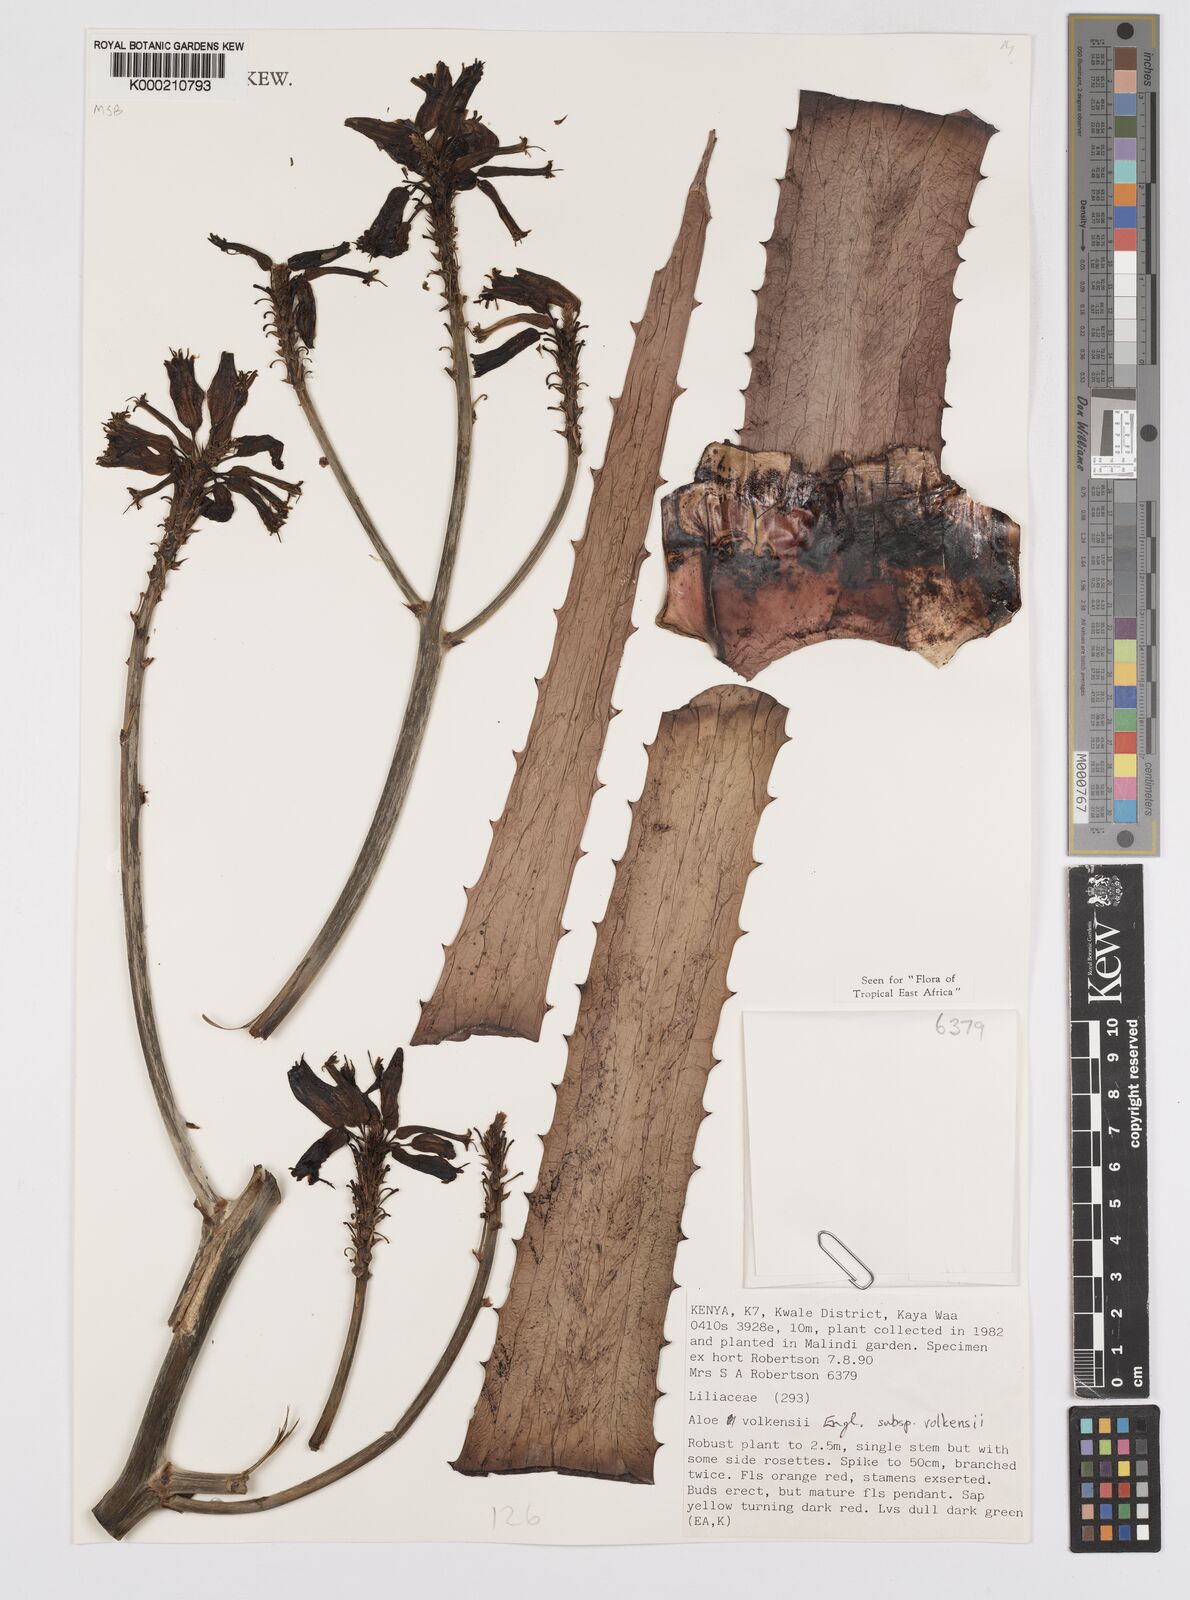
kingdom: Plantae
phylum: Tracheophyta
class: Liliopsida
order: Asparagales
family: Asphodelaceae
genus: Aloe
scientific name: Aloe volkensii
